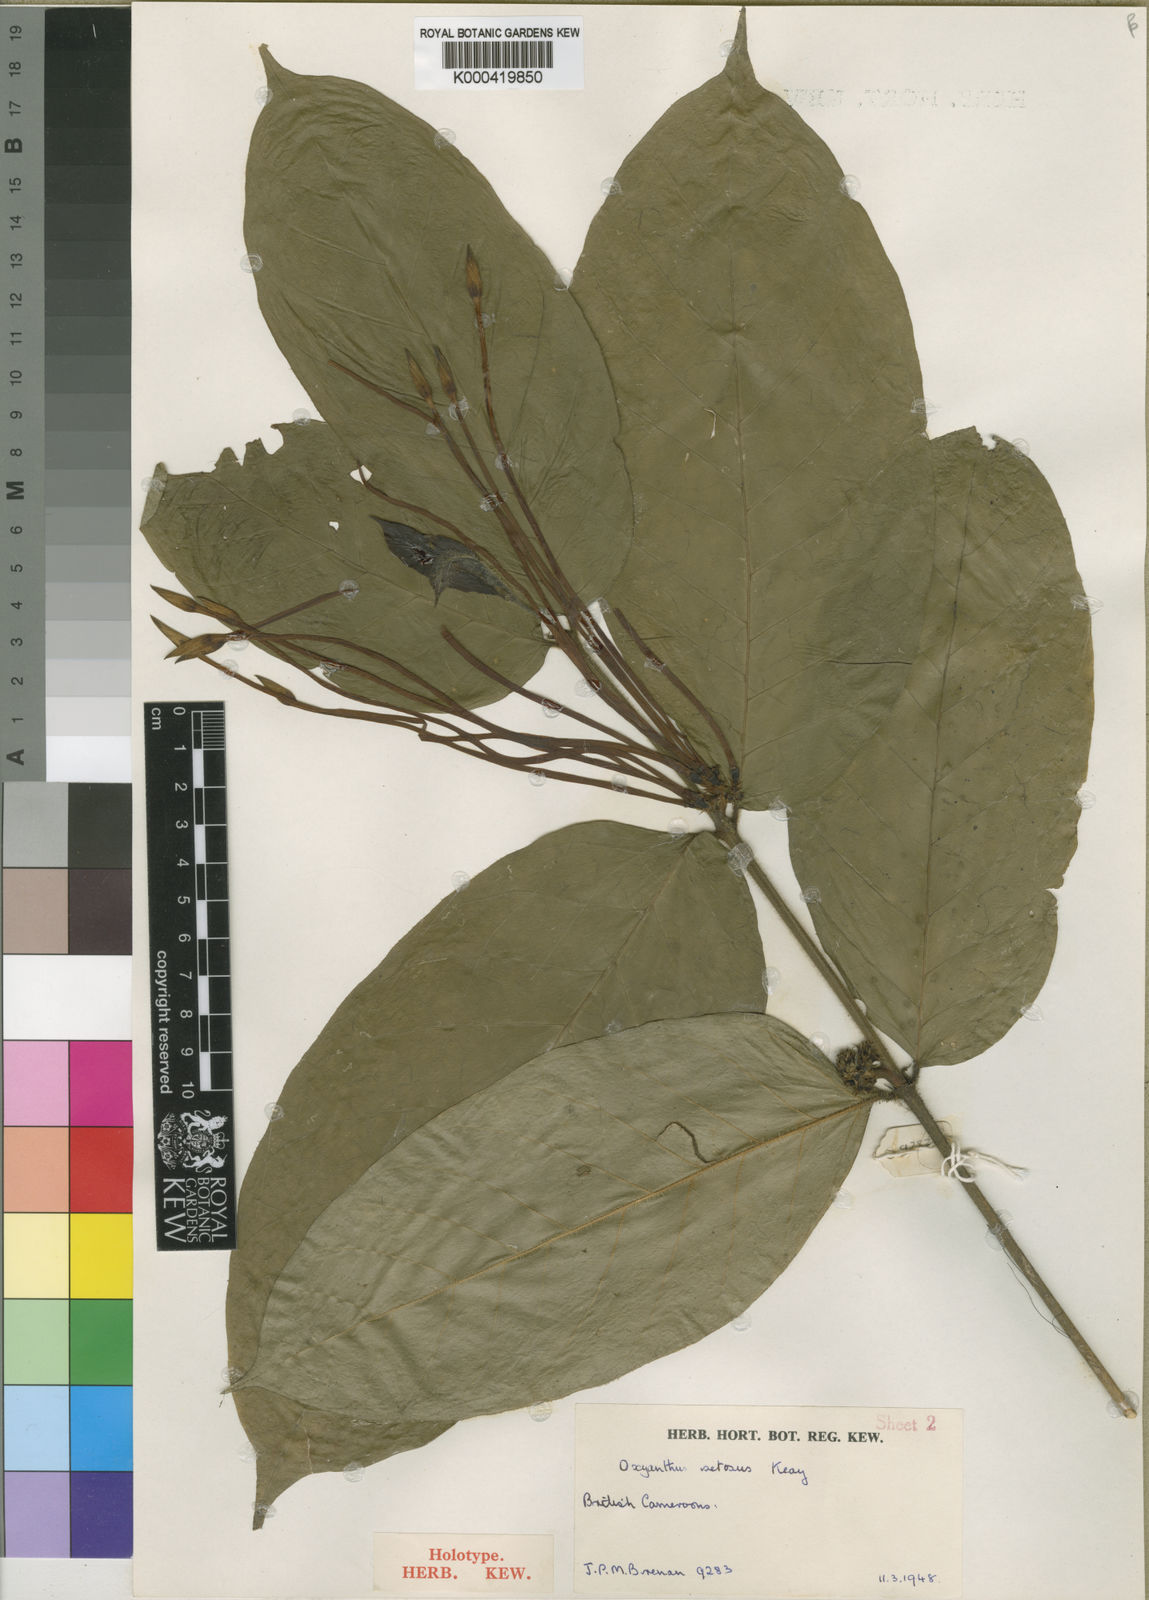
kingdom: Plantae
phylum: Tracheophyta
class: Magnoliopsida
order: Gentianales
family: Rubiaceae
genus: Oxyanthus
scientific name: Oxyanthus setosus
